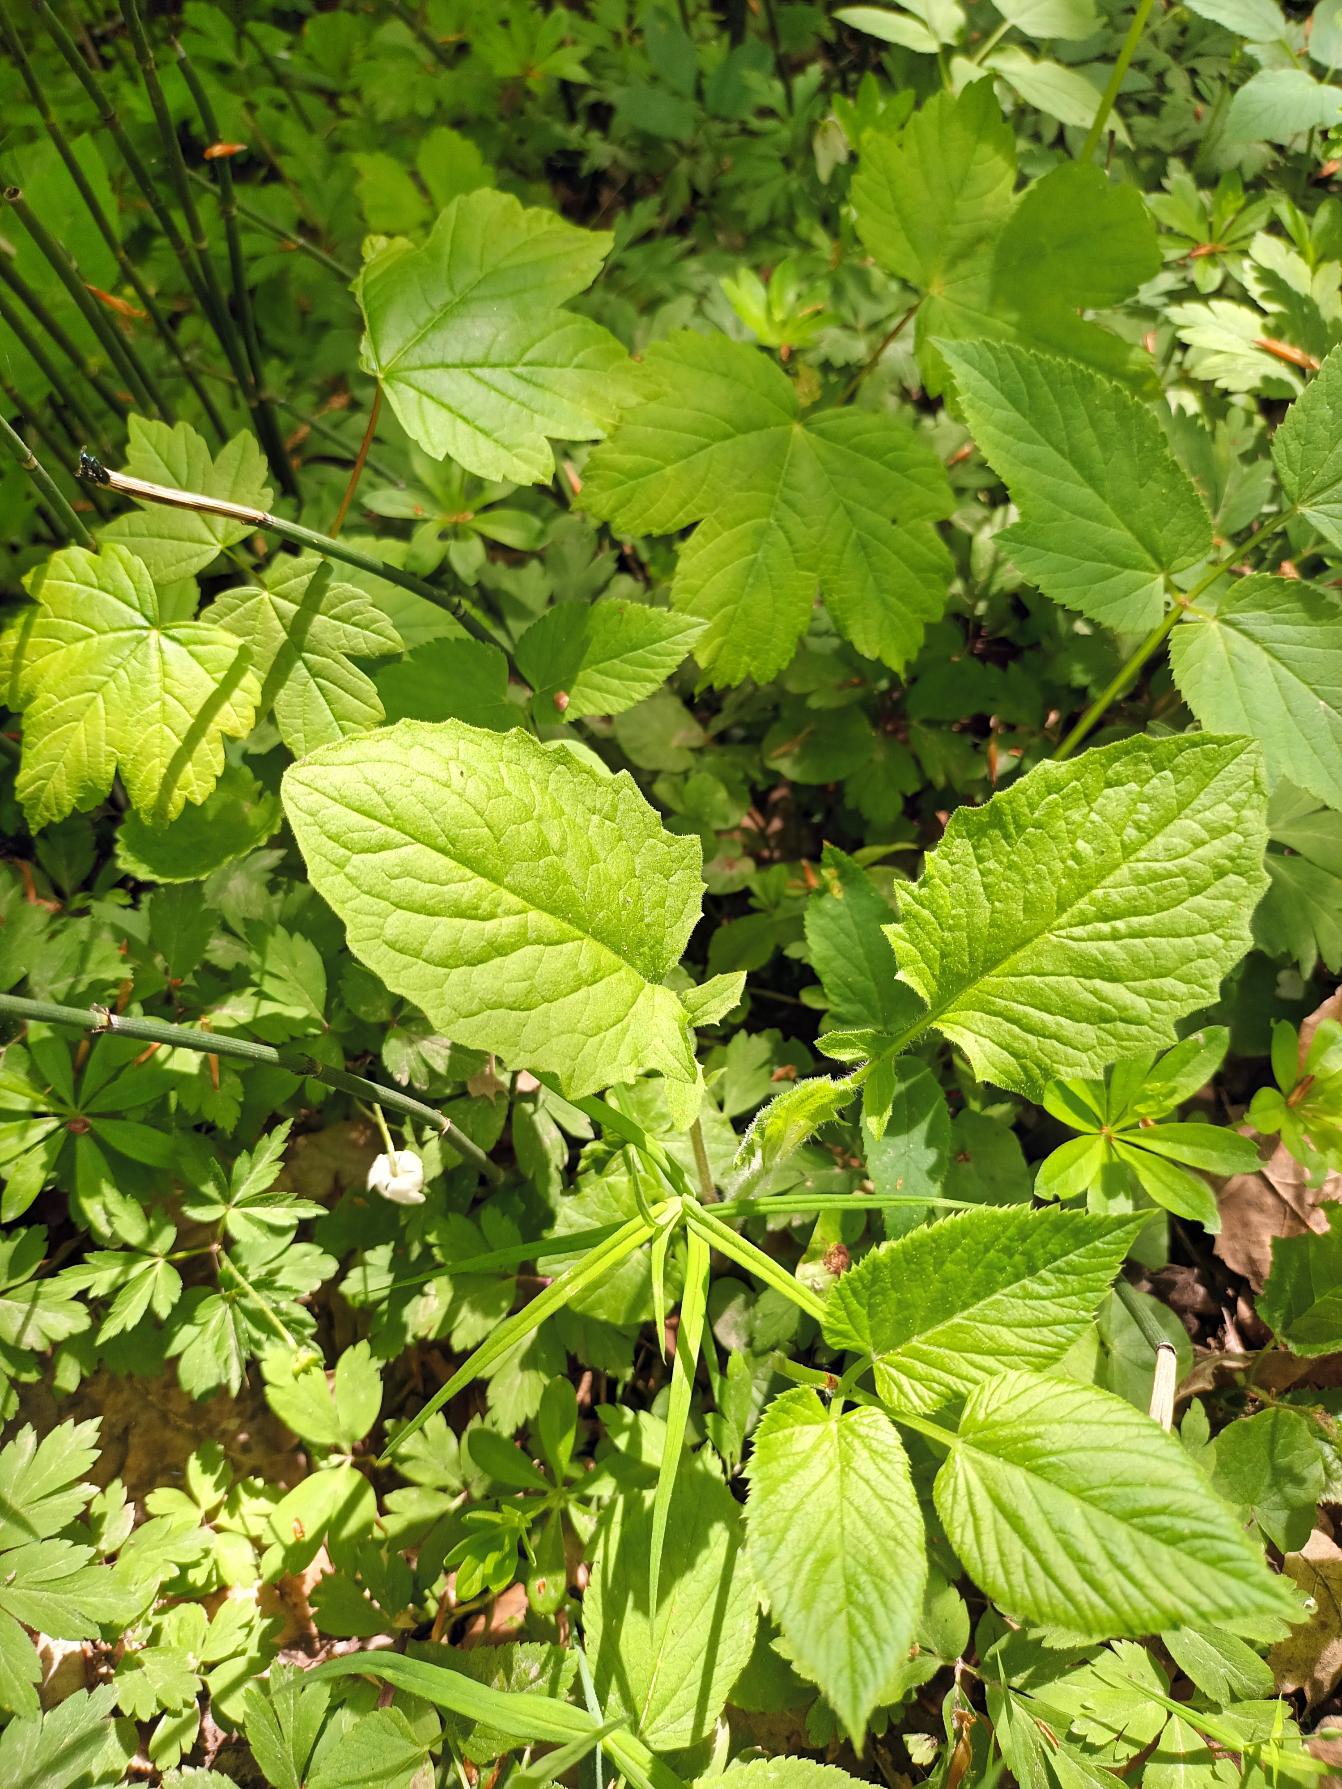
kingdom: Plantae
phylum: Tracheophyta
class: Magnoliopsida
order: Asterales
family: Asteraceae
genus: Lapsana
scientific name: Lapsana communis
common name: Haremad
